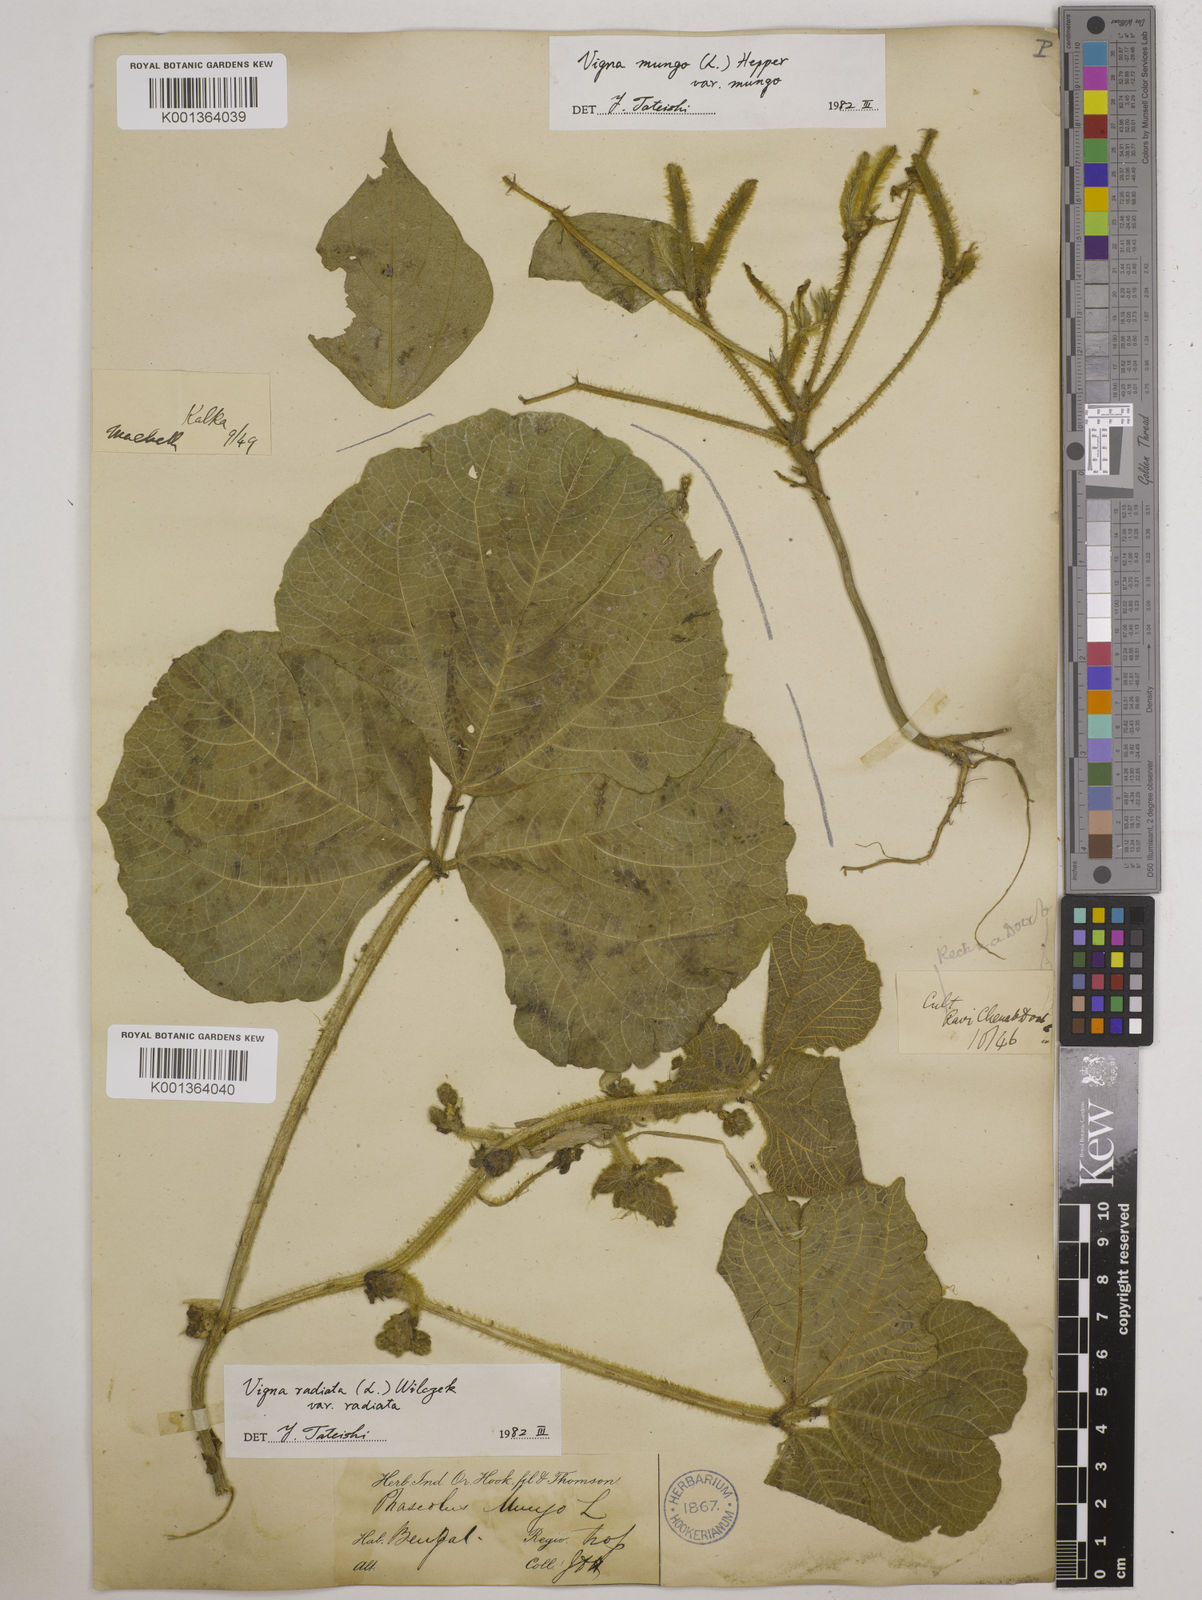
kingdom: Plantae
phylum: Tracheophyta
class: Magnoliopsida
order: Fabales
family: Fabaceae
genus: Vigna
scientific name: Vigna radiata
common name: Mung-bean
